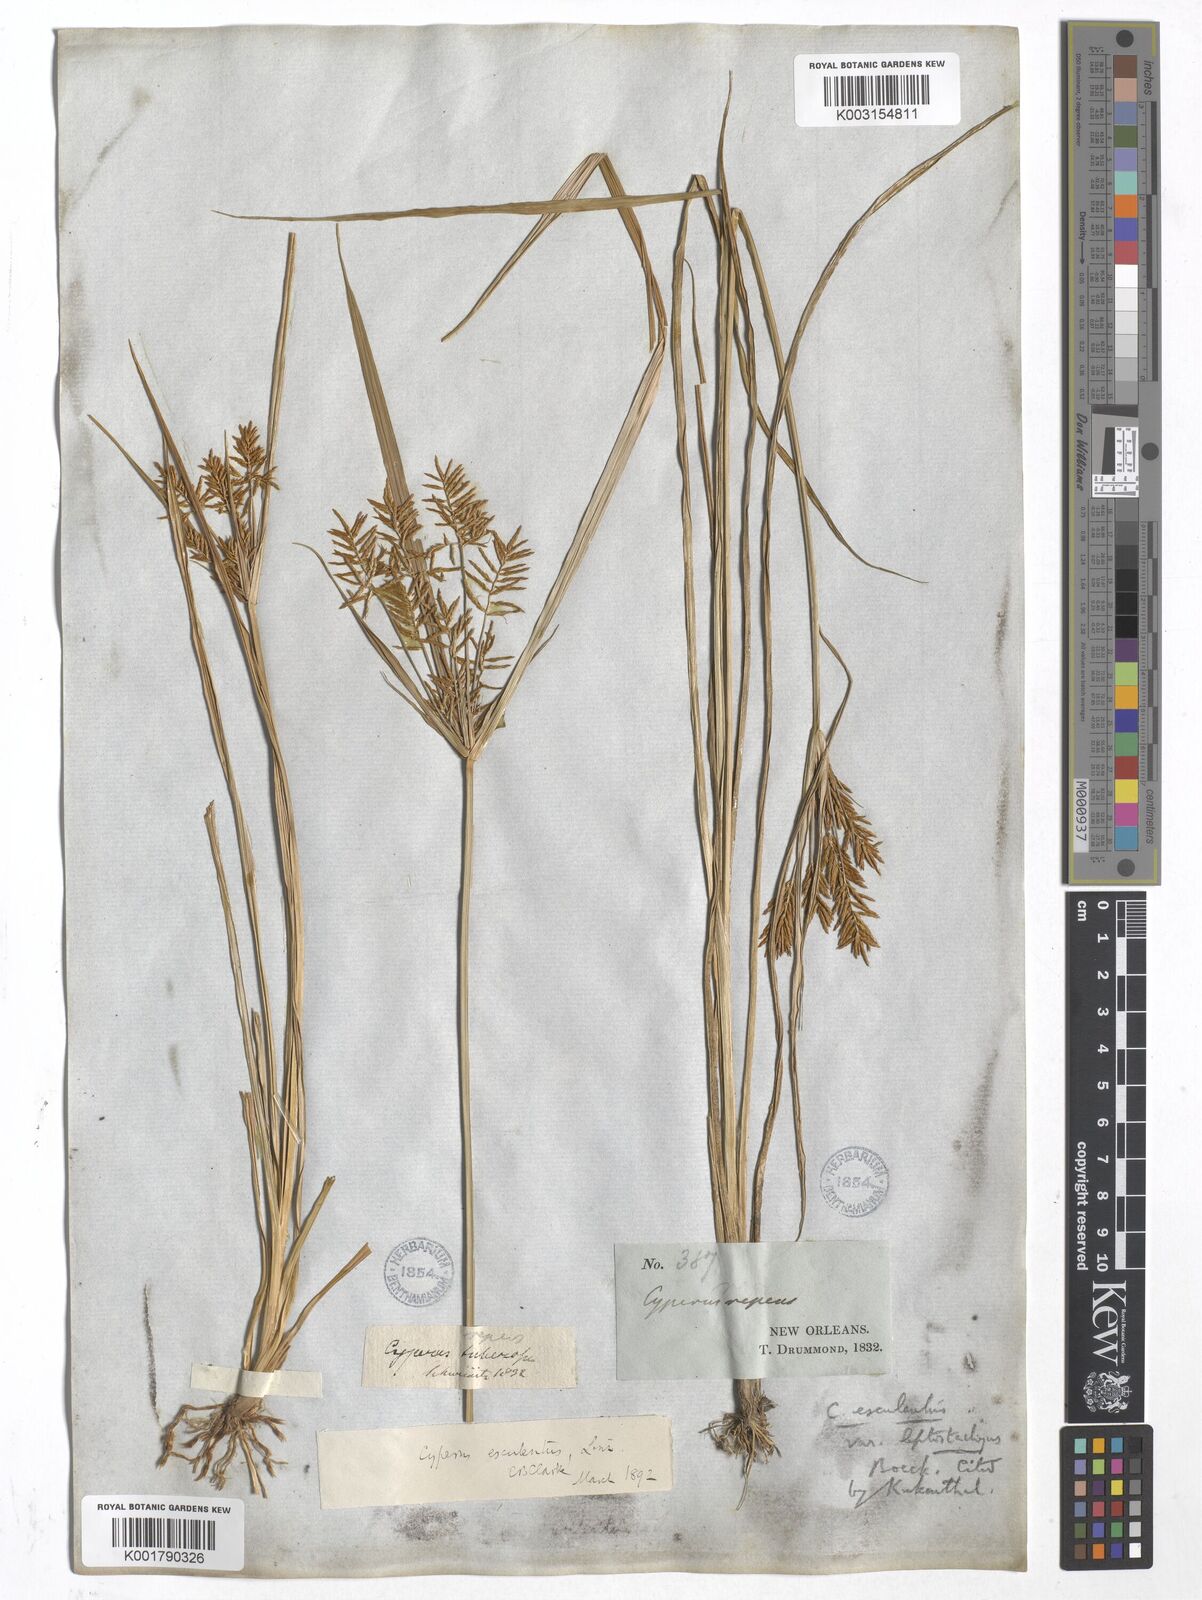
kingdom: Plantae
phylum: Tracheophyta
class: Liliopsida
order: Poales
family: Cyperaceae
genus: Cyperus
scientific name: Cyperus esculentus
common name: Yellow nutsedge
